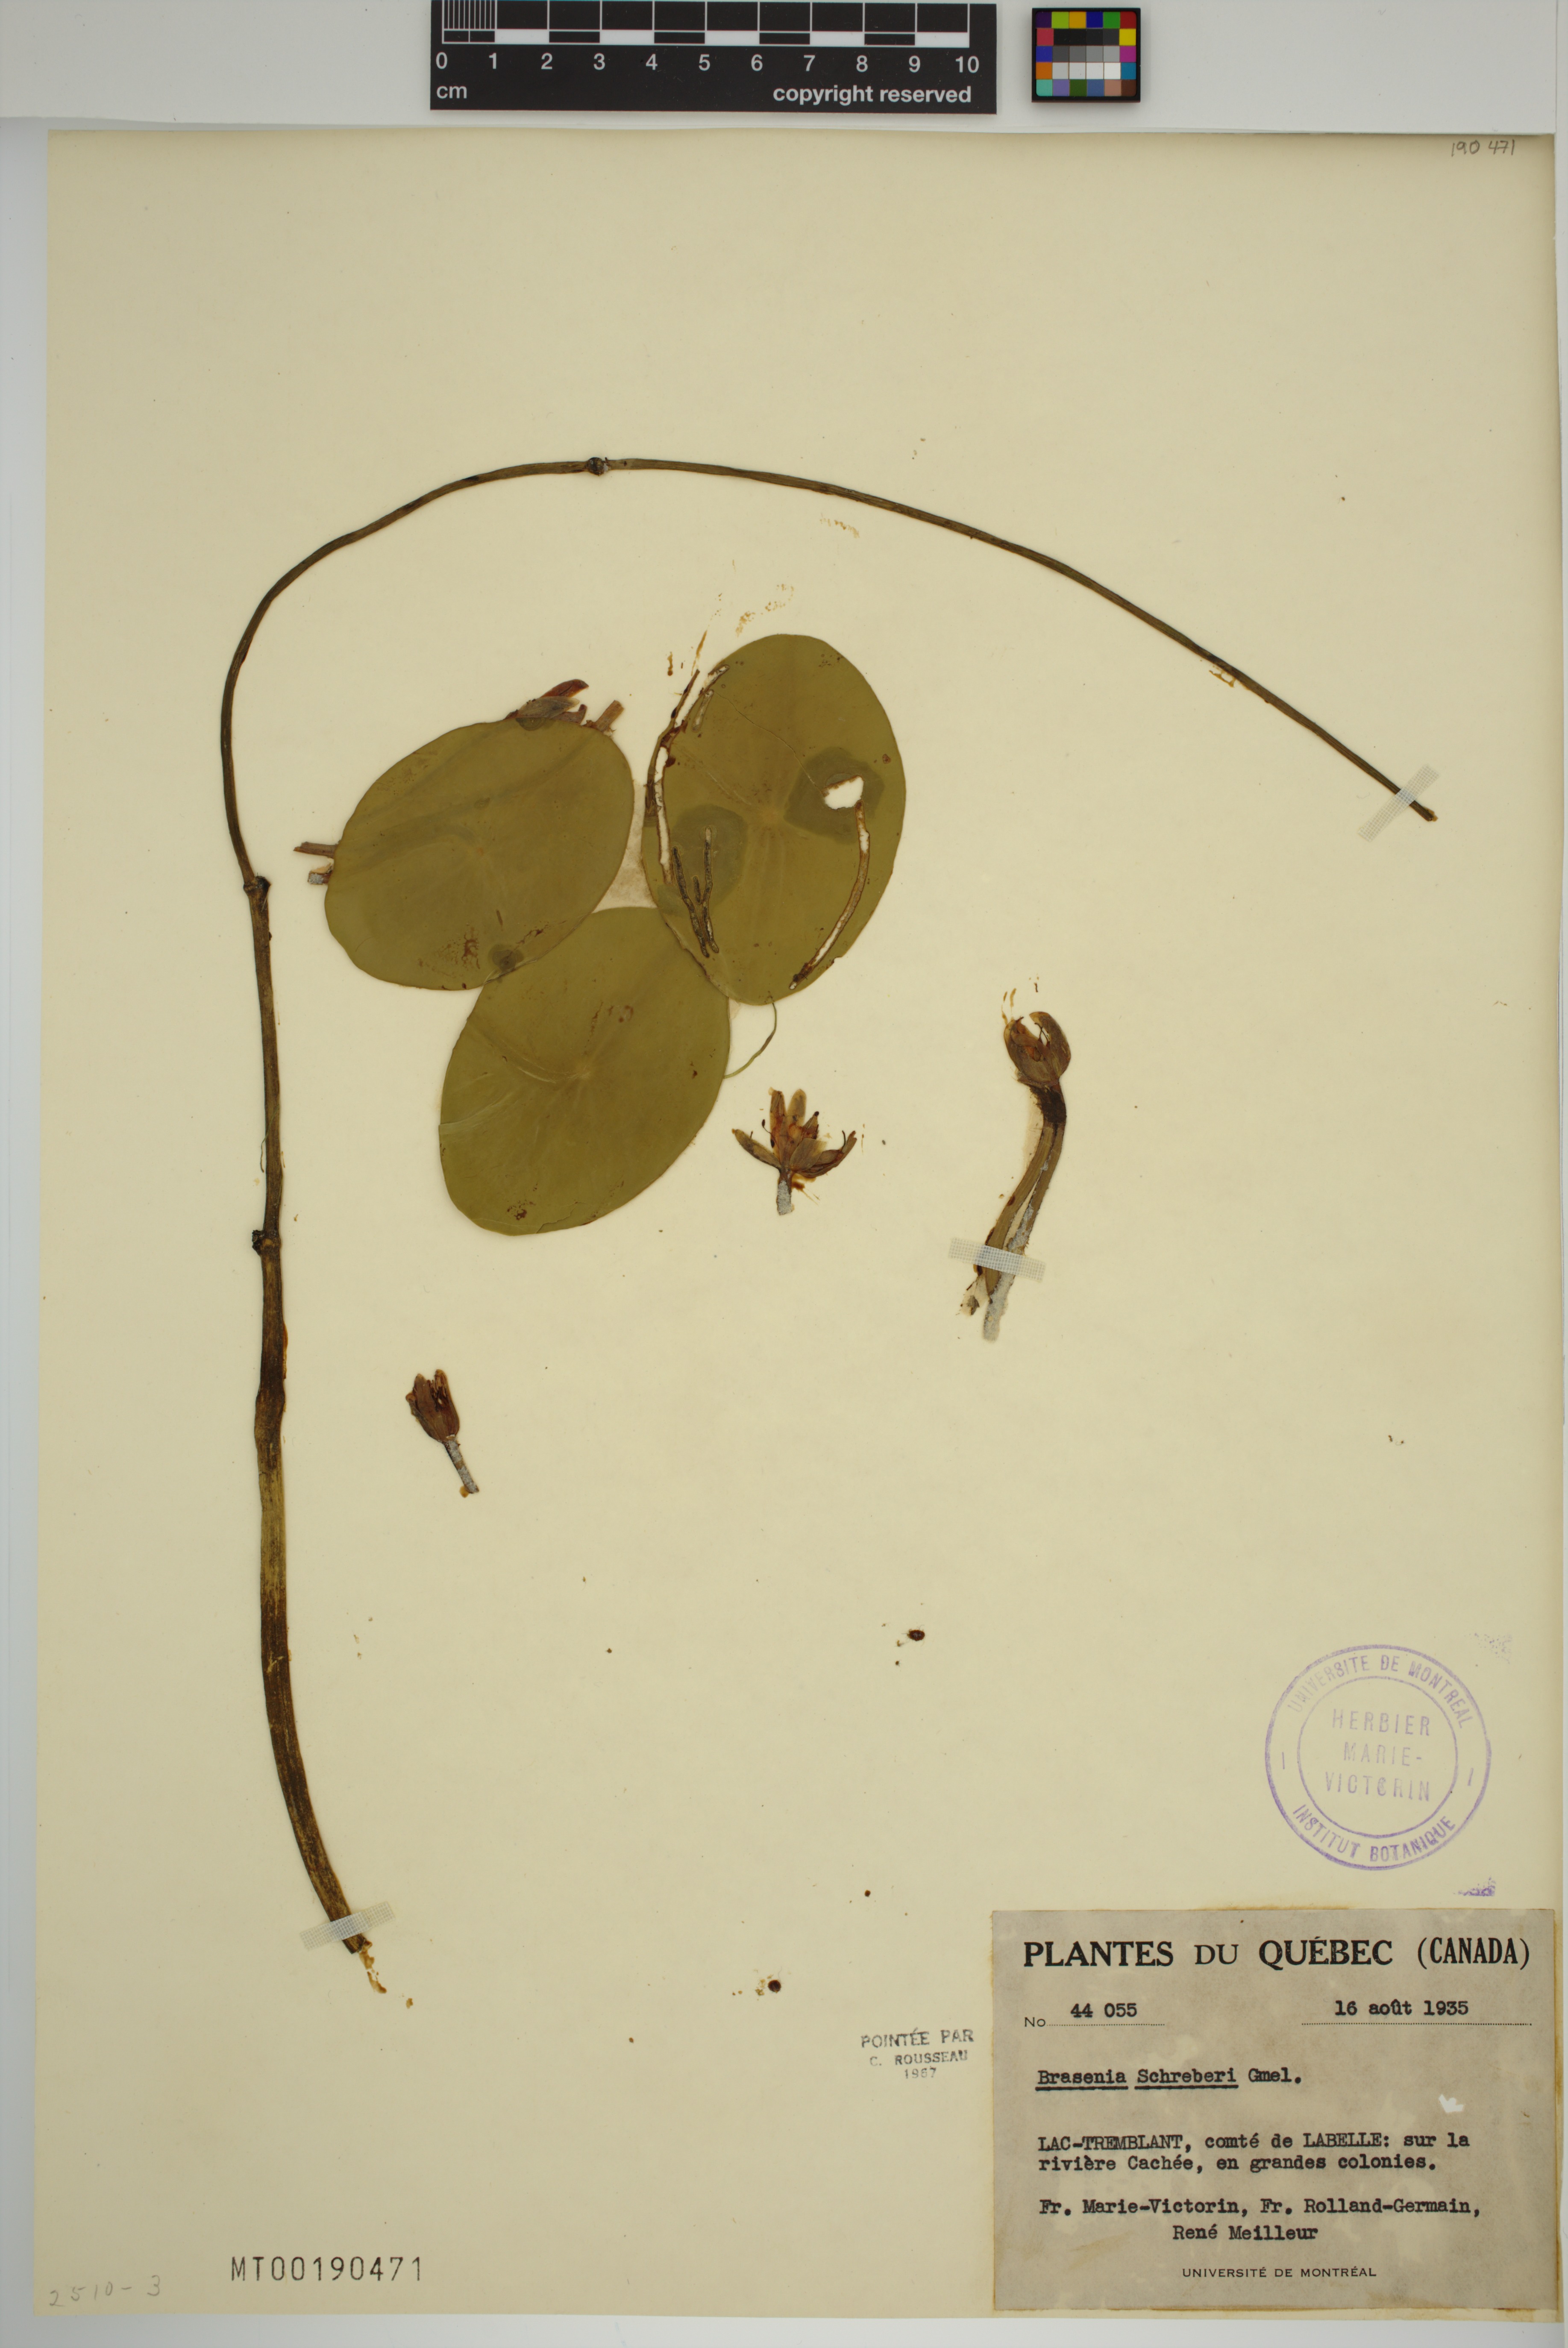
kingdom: Plantae
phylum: Tracheophyta
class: Magnoliopsida
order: Nymphaeales
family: Cabombaceae
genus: Brasenia
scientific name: Brasenia schreberi
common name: Water-shield
